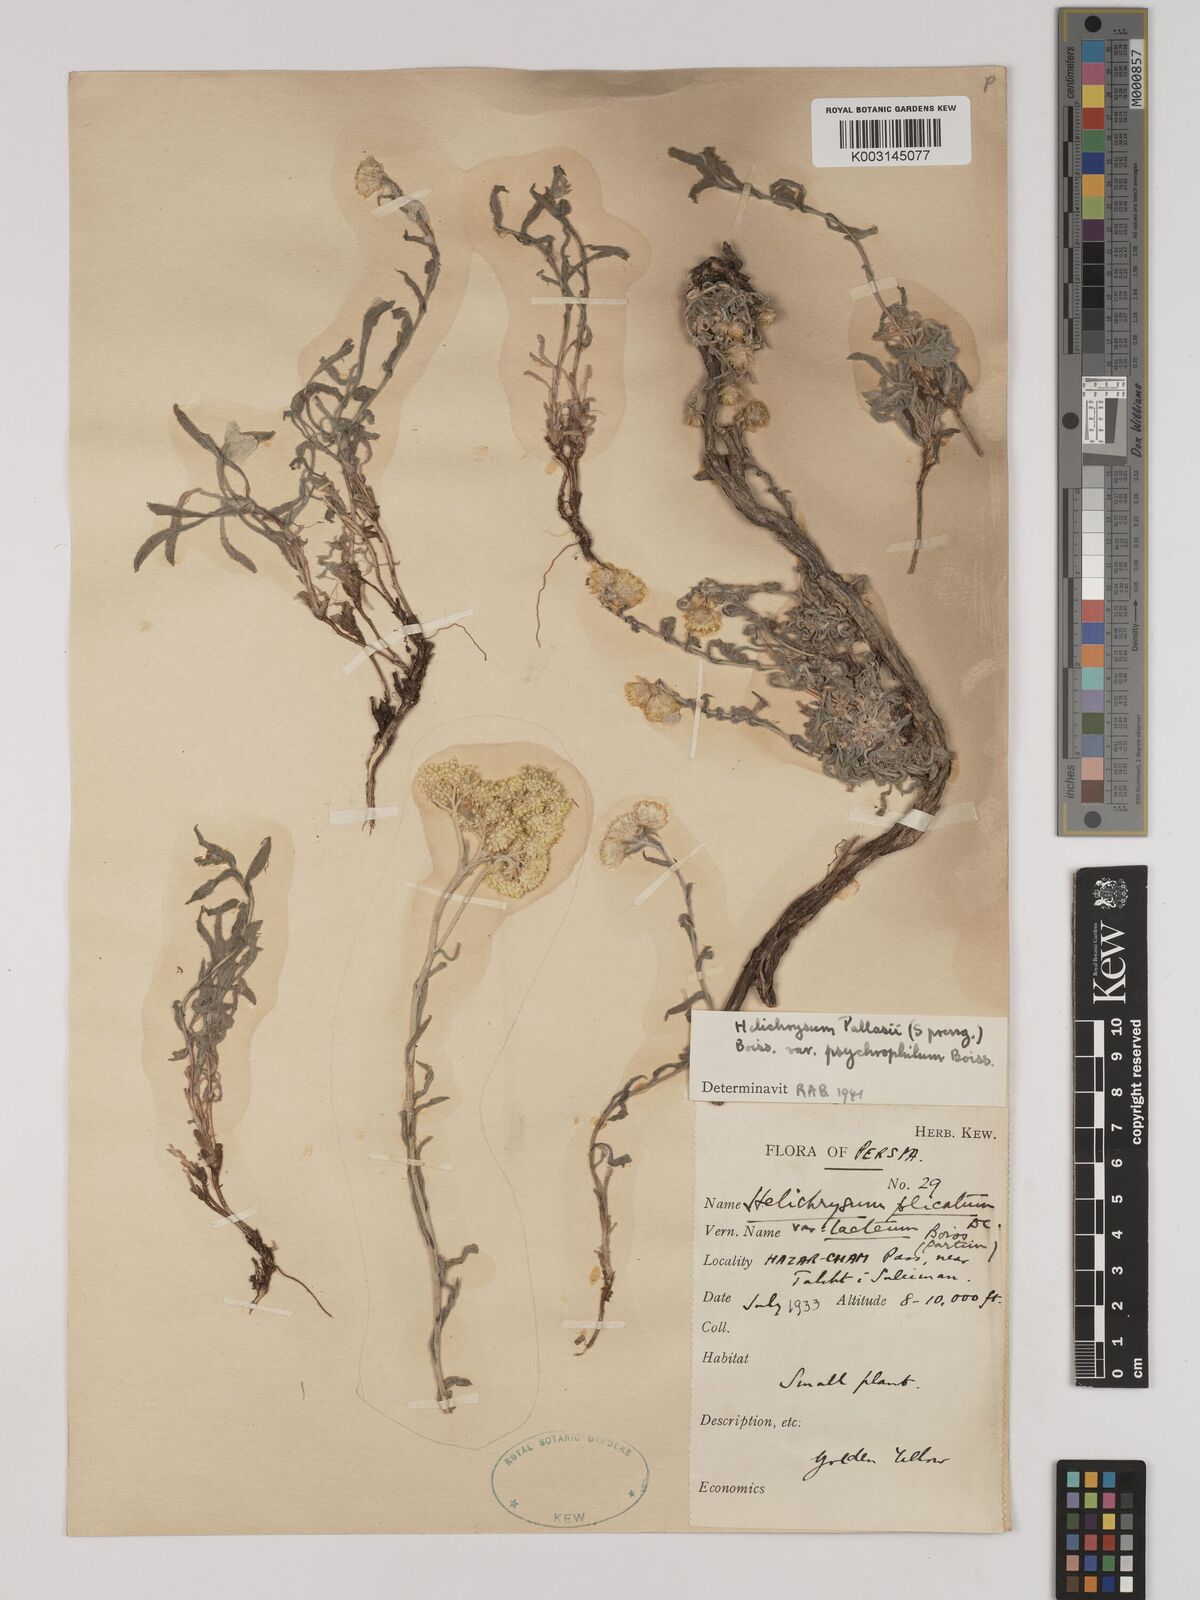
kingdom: Plantae
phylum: Tracheophyta
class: Magnoliopsida
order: Asterales
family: Asteraceae
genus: Helichrysum
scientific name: Helichrysum pallasii
